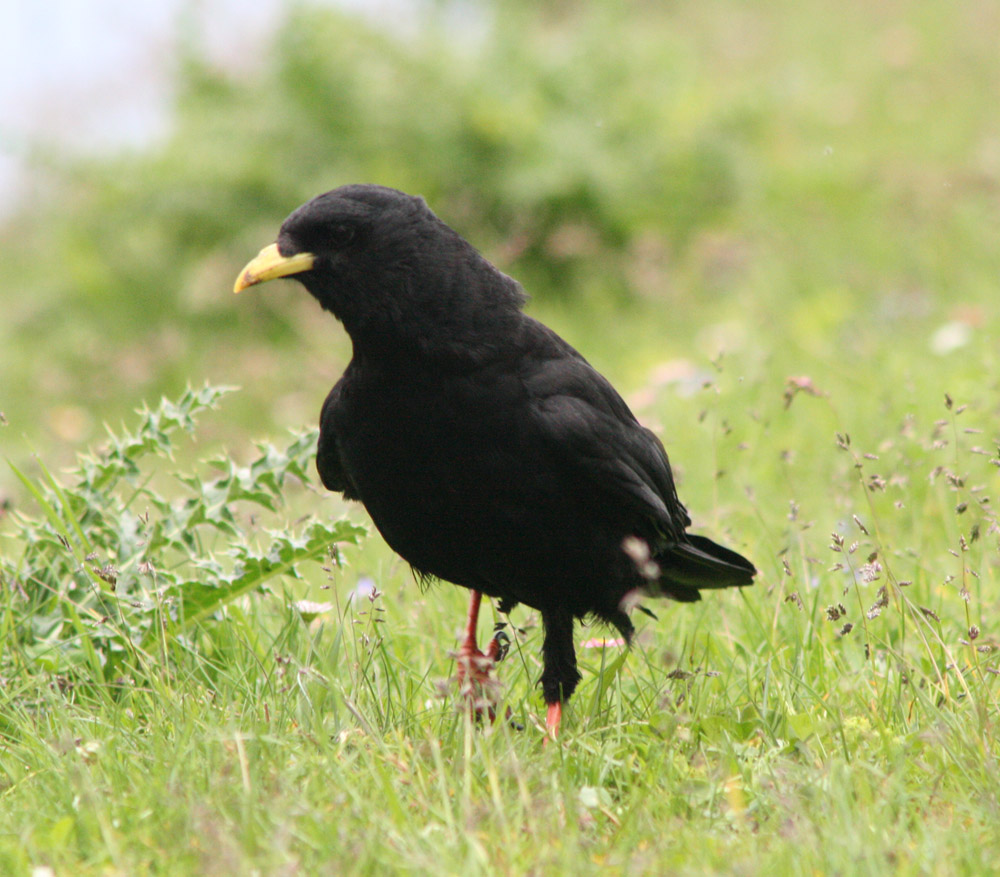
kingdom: Animalia
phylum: Chordata
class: Aves
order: Passeriformes
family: Corvidae
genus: Pyrrhocorax
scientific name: Pyrrhocorax graculus
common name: Alpine chough
